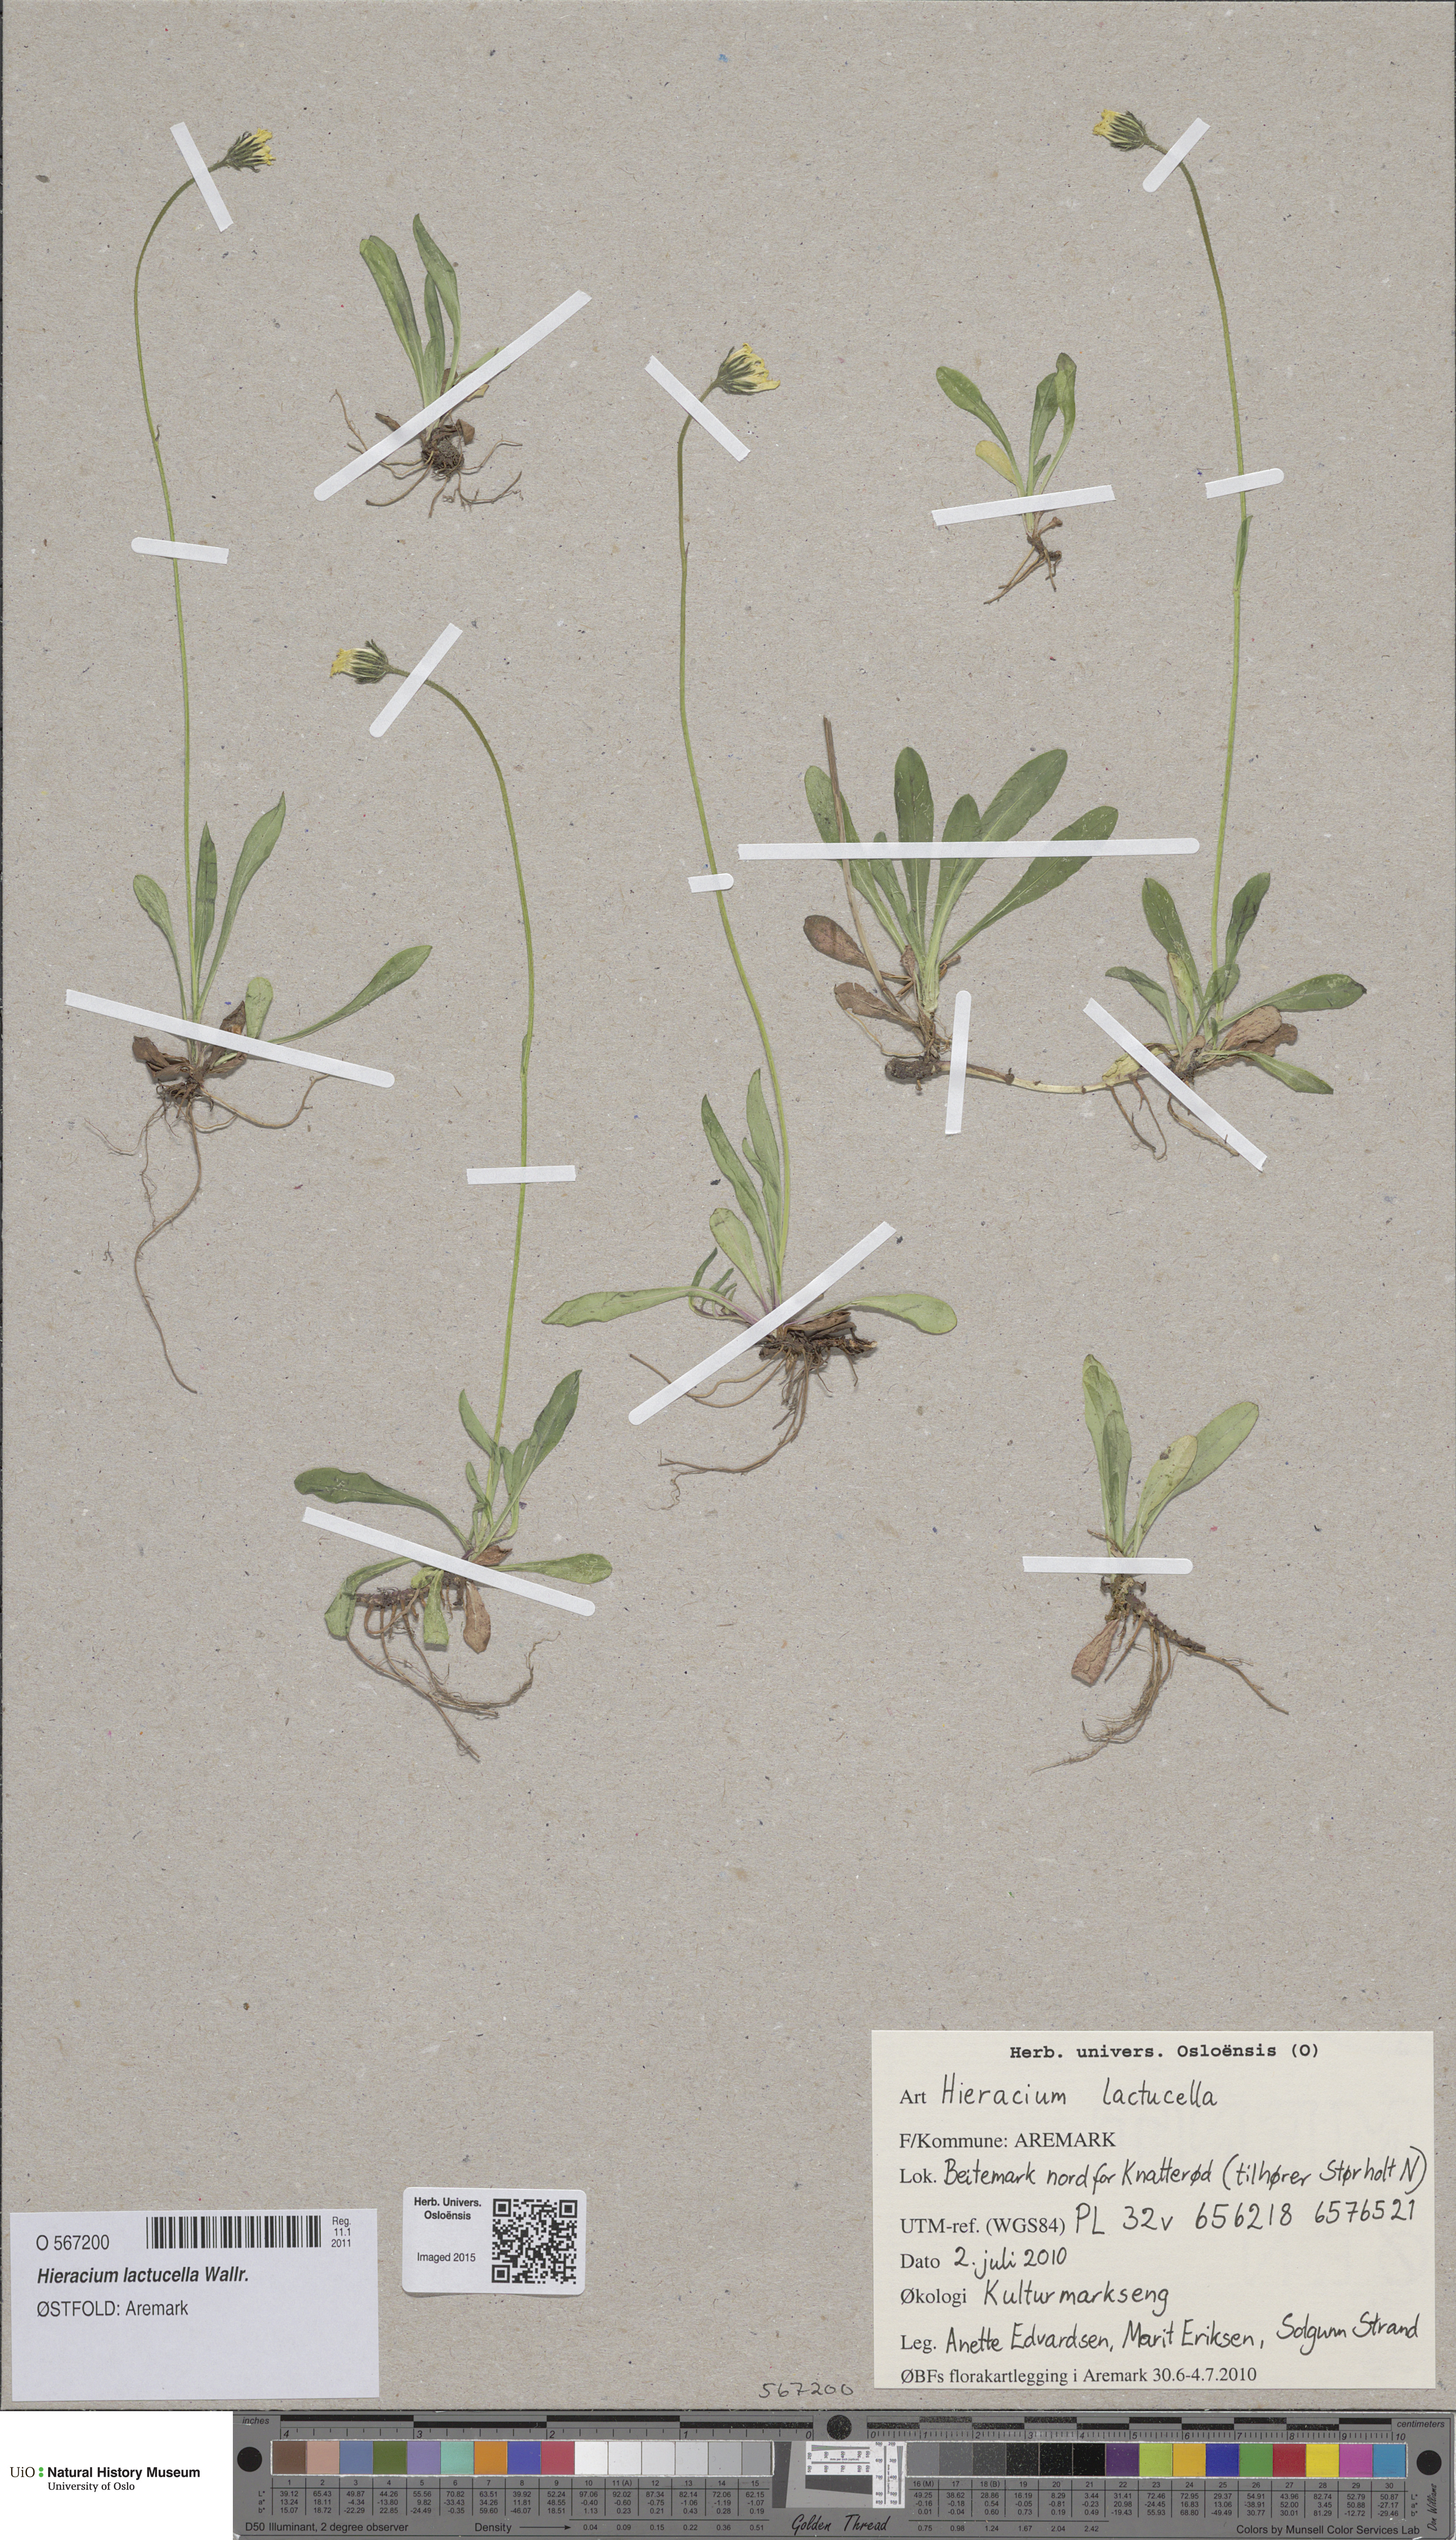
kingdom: Plantae
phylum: Tracheophyta
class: Magnoliopsida
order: Asterales
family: Asteraceae
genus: Pilosella
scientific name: Pilosella lactucella
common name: Glaucous fox-and-cubs
